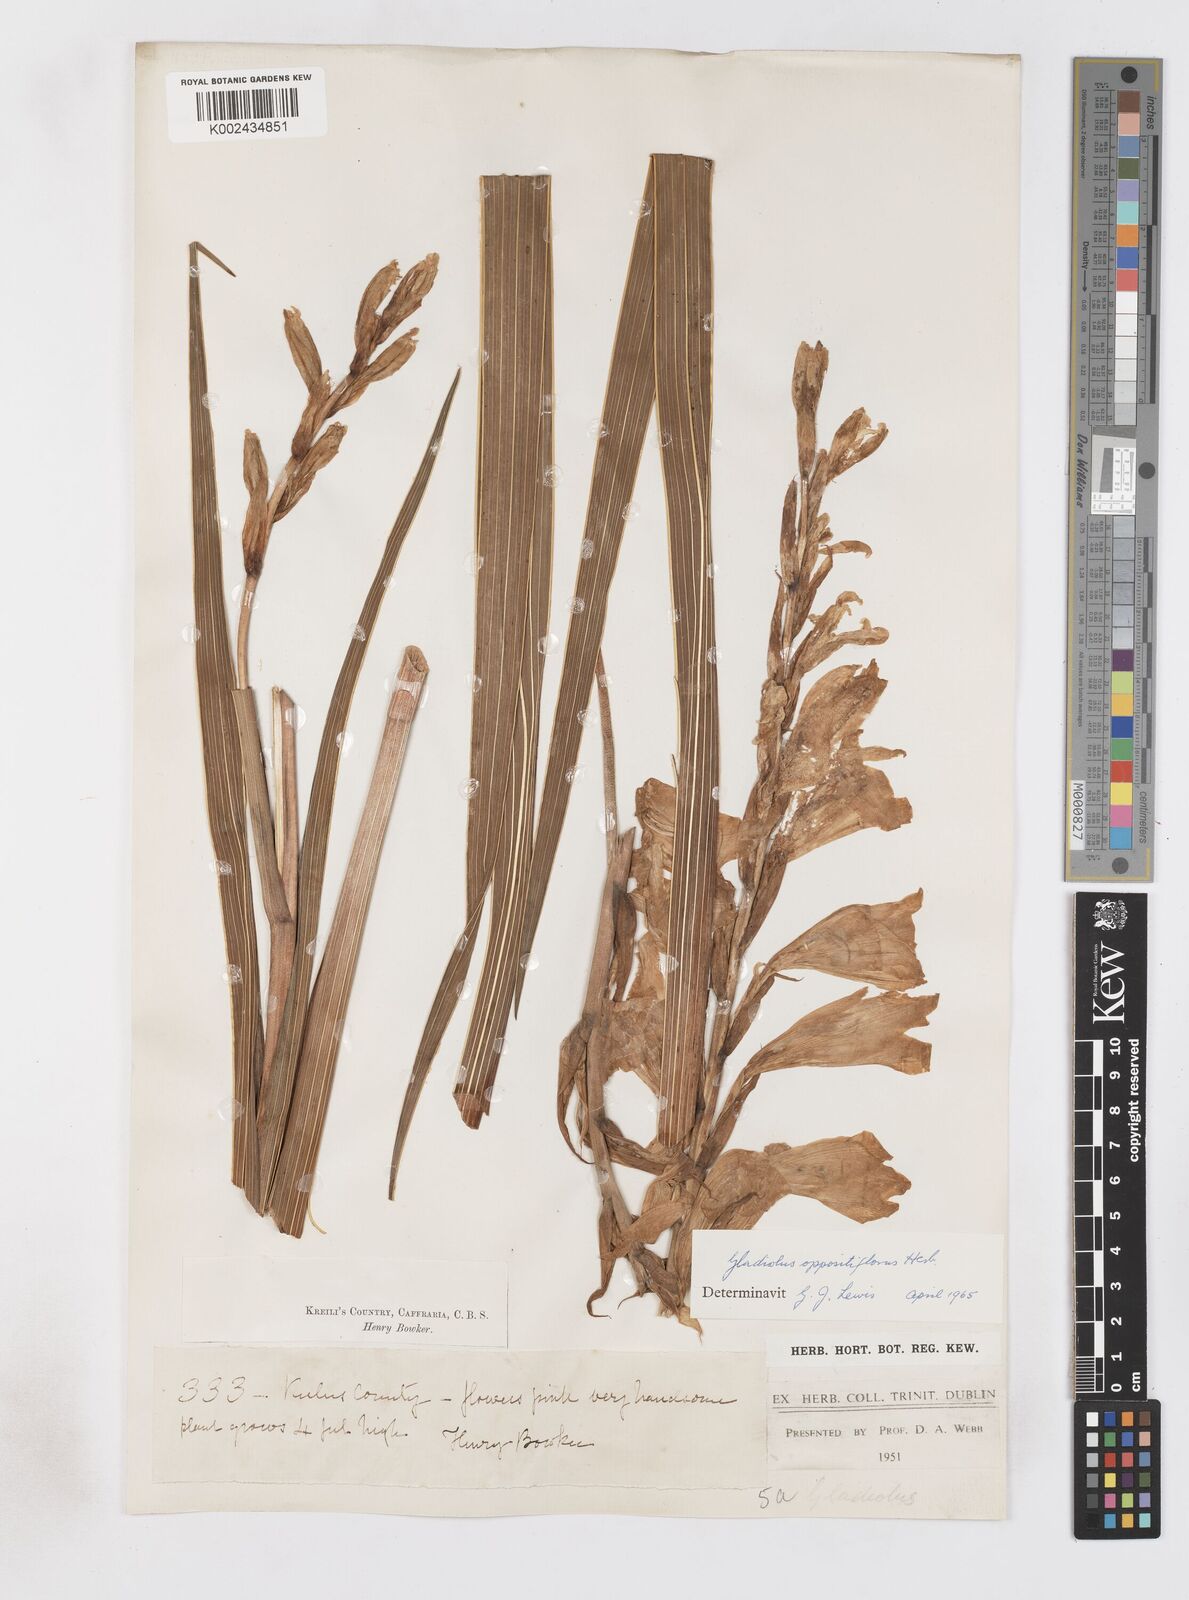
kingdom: Plantae
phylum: Tracheophyta
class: Liliopsida
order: Asparagales
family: Iridaceae
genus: Gladiolus
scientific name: Gladiolus oppositiflorus
